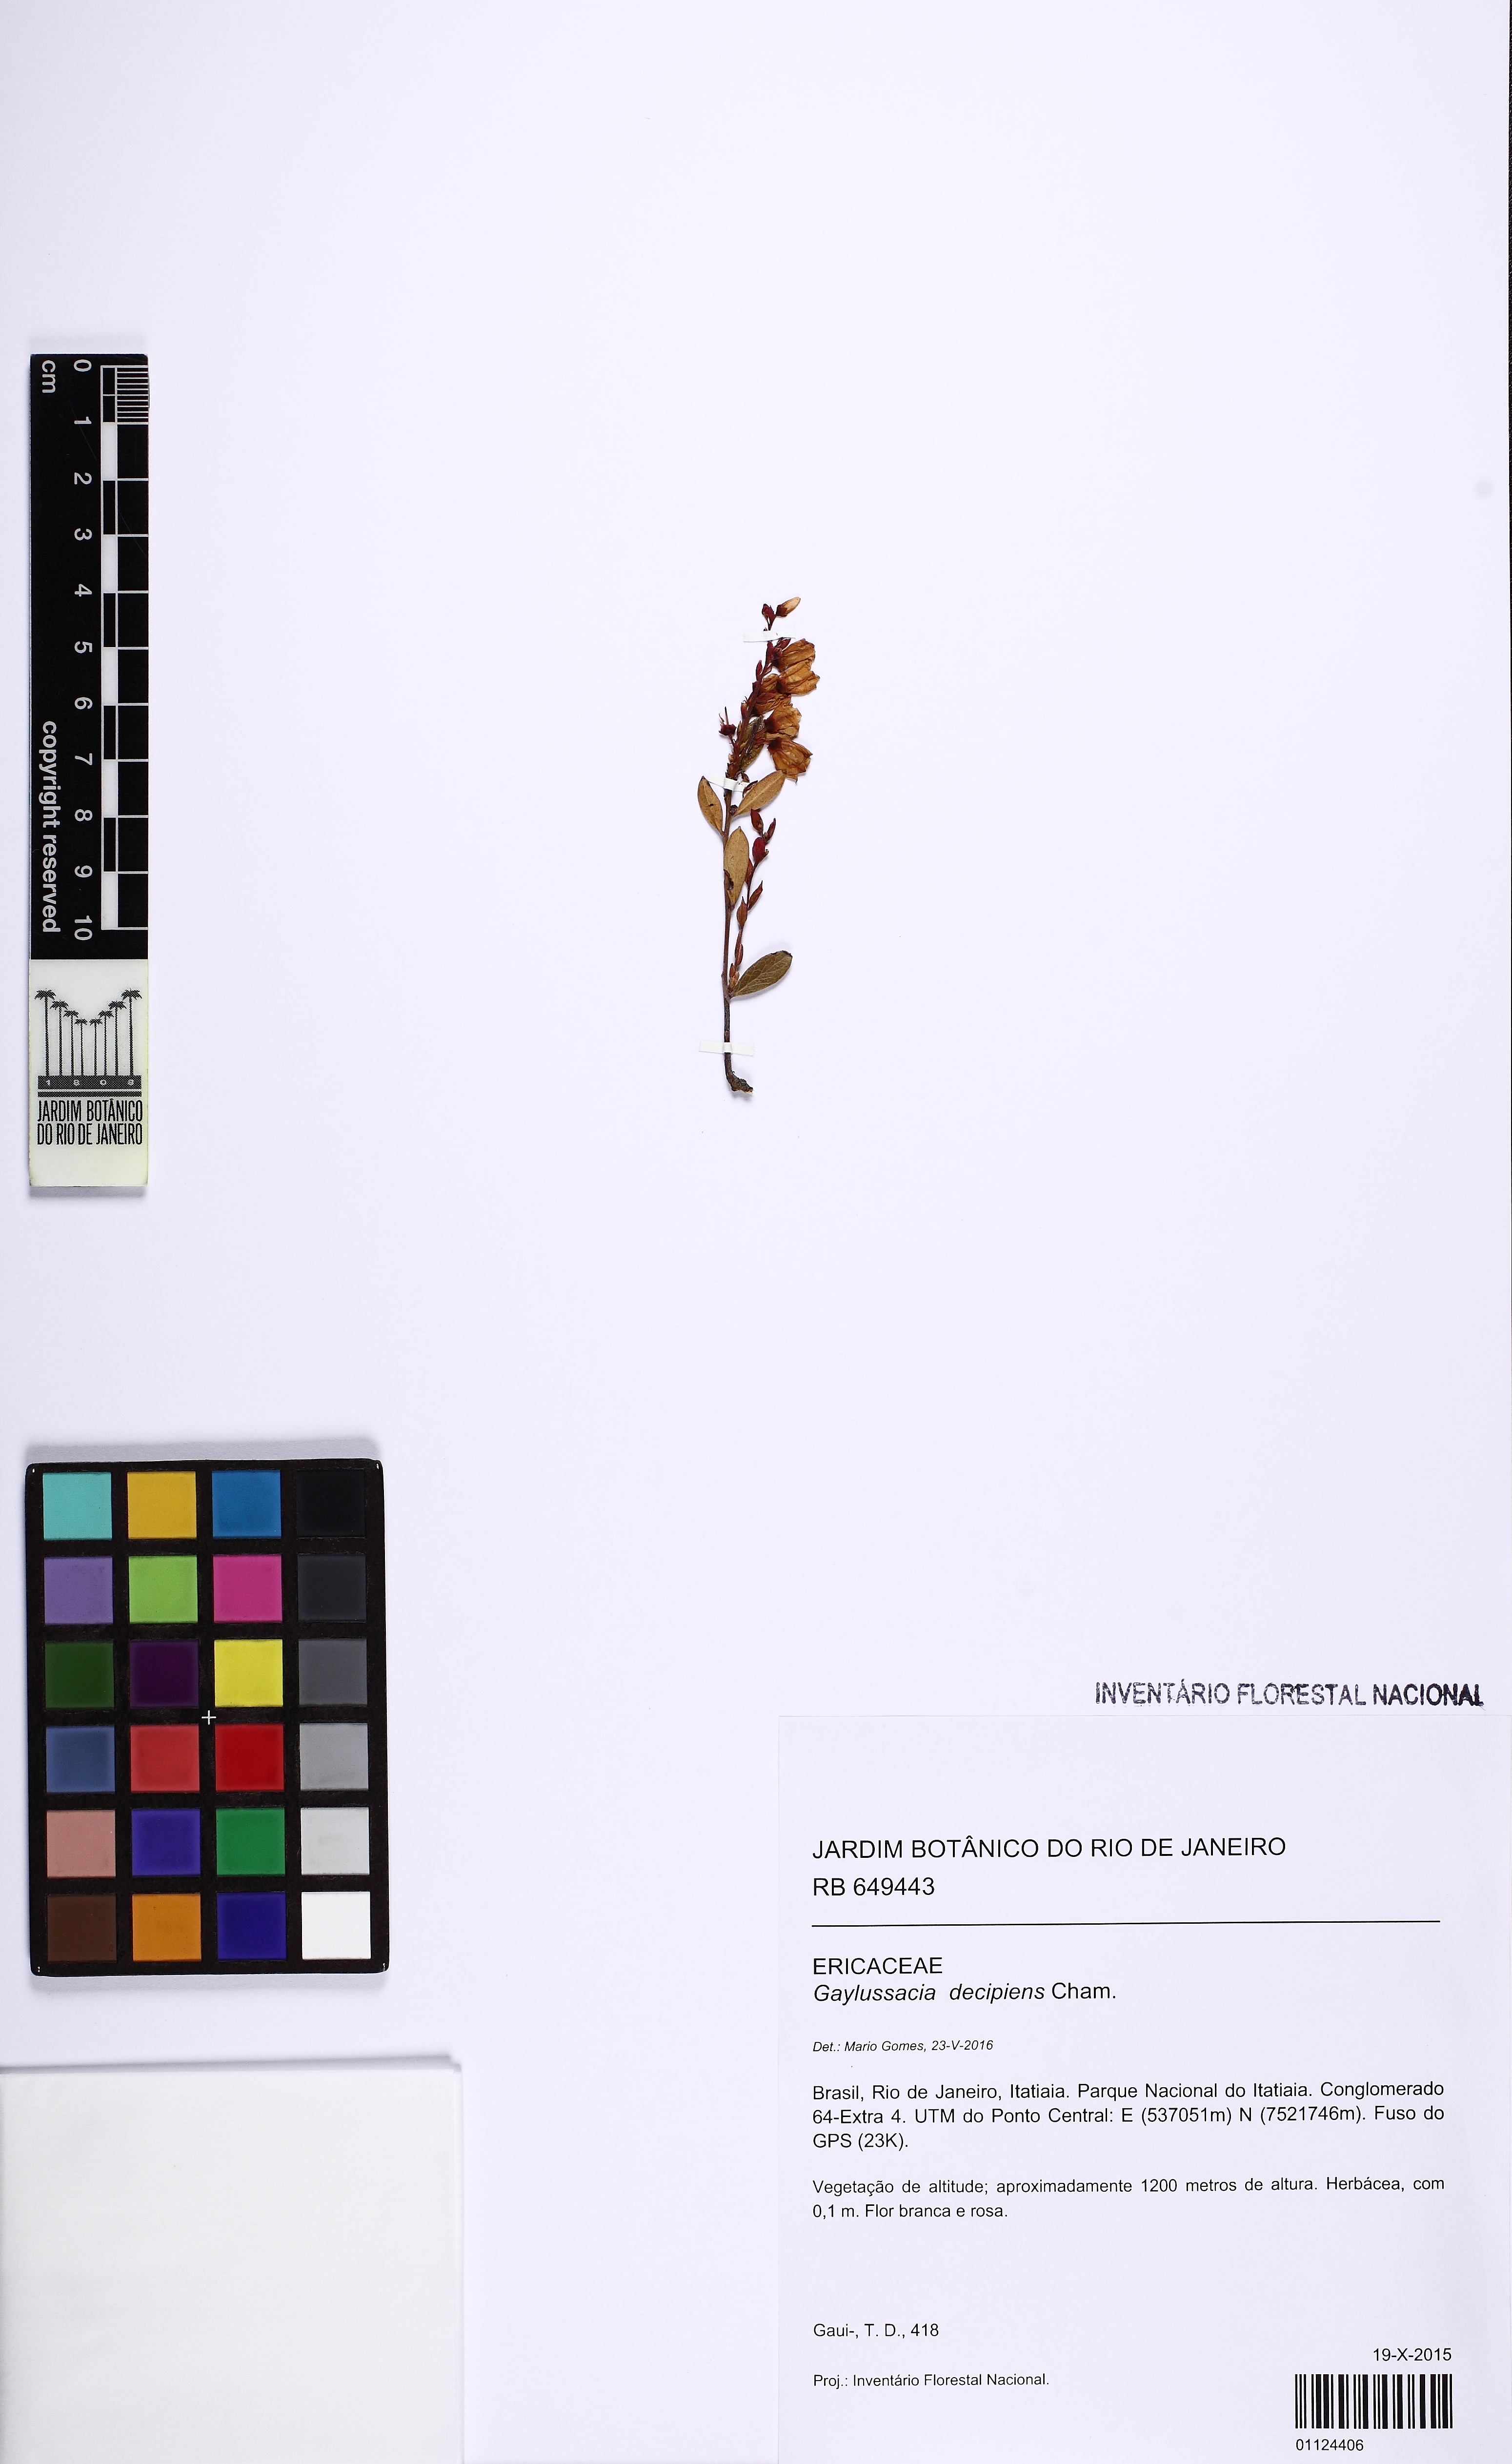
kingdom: Plantae
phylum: Tracheophyta
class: Magnoliopsida
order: Ericales
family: Ericaceae
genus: Gaylussacia
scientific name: Gaylussacia decipiens
